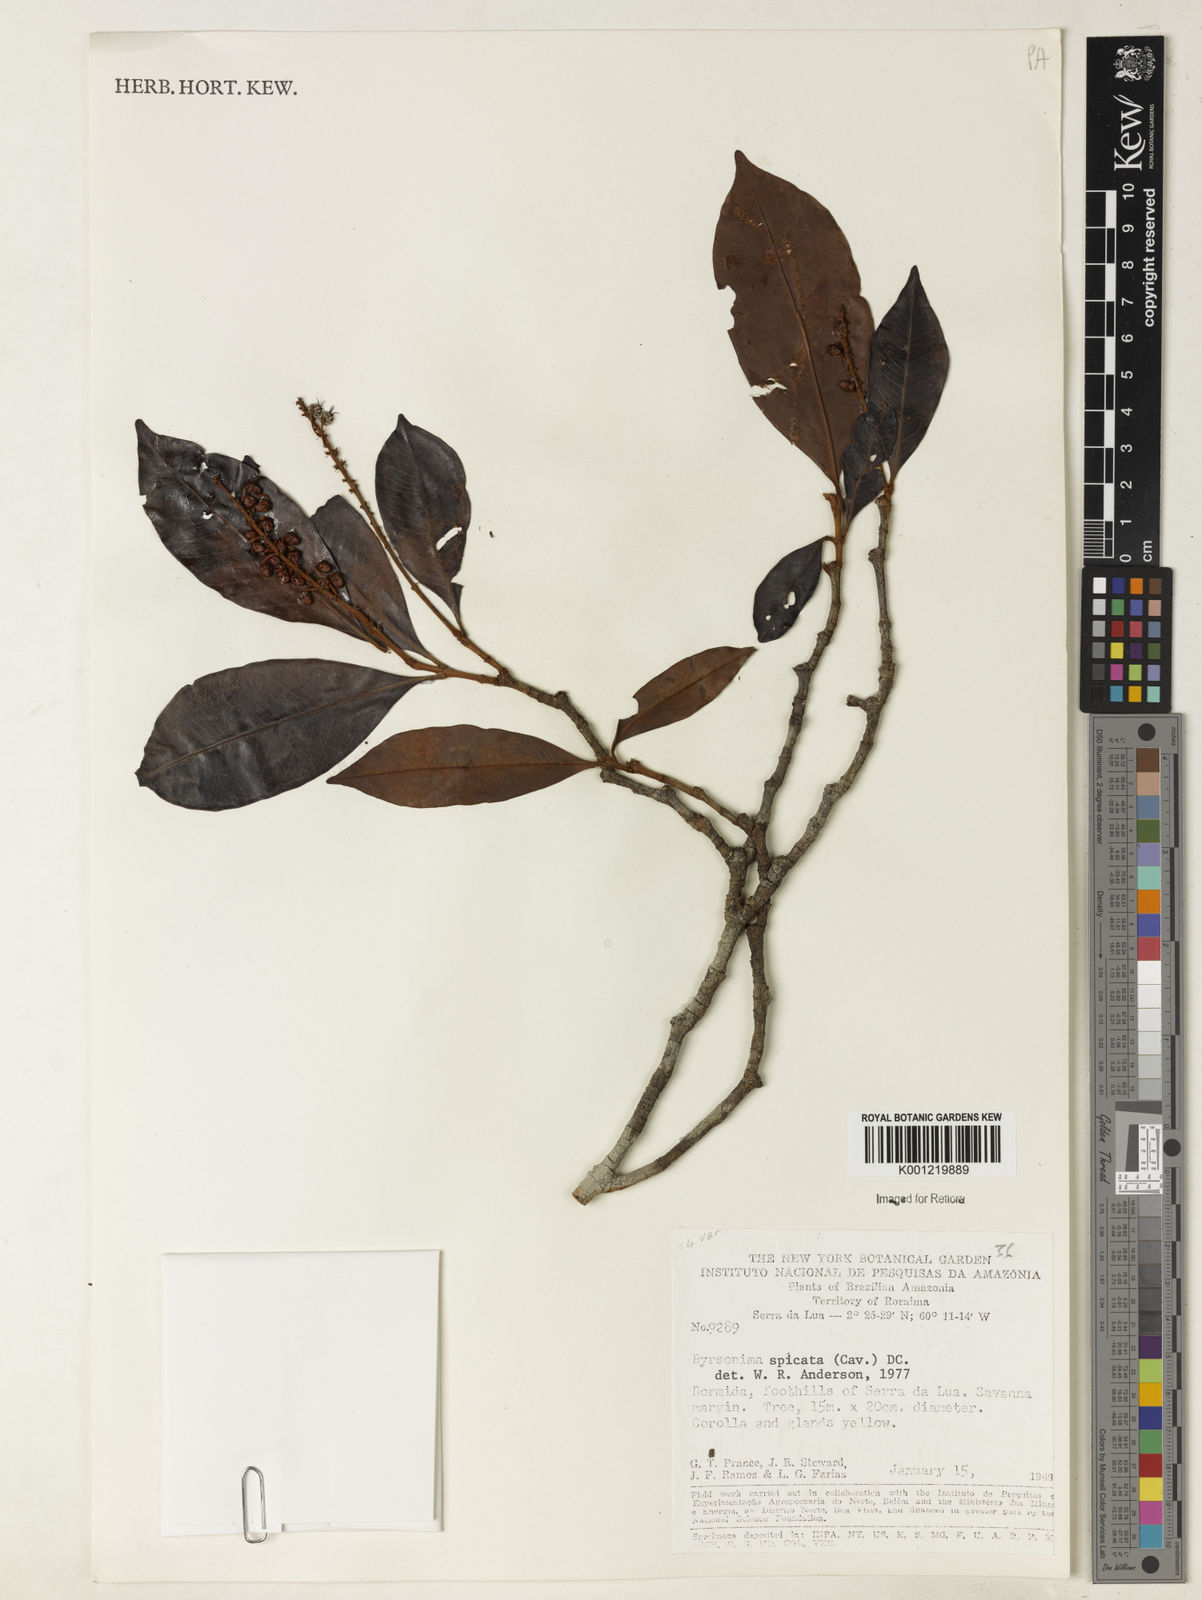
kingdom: Plantae
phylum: Tracheophyta
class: Magnoliopsida
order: Malpighiales
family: Malpighiaceae
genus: Byrsonima
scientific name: Byrsonima
